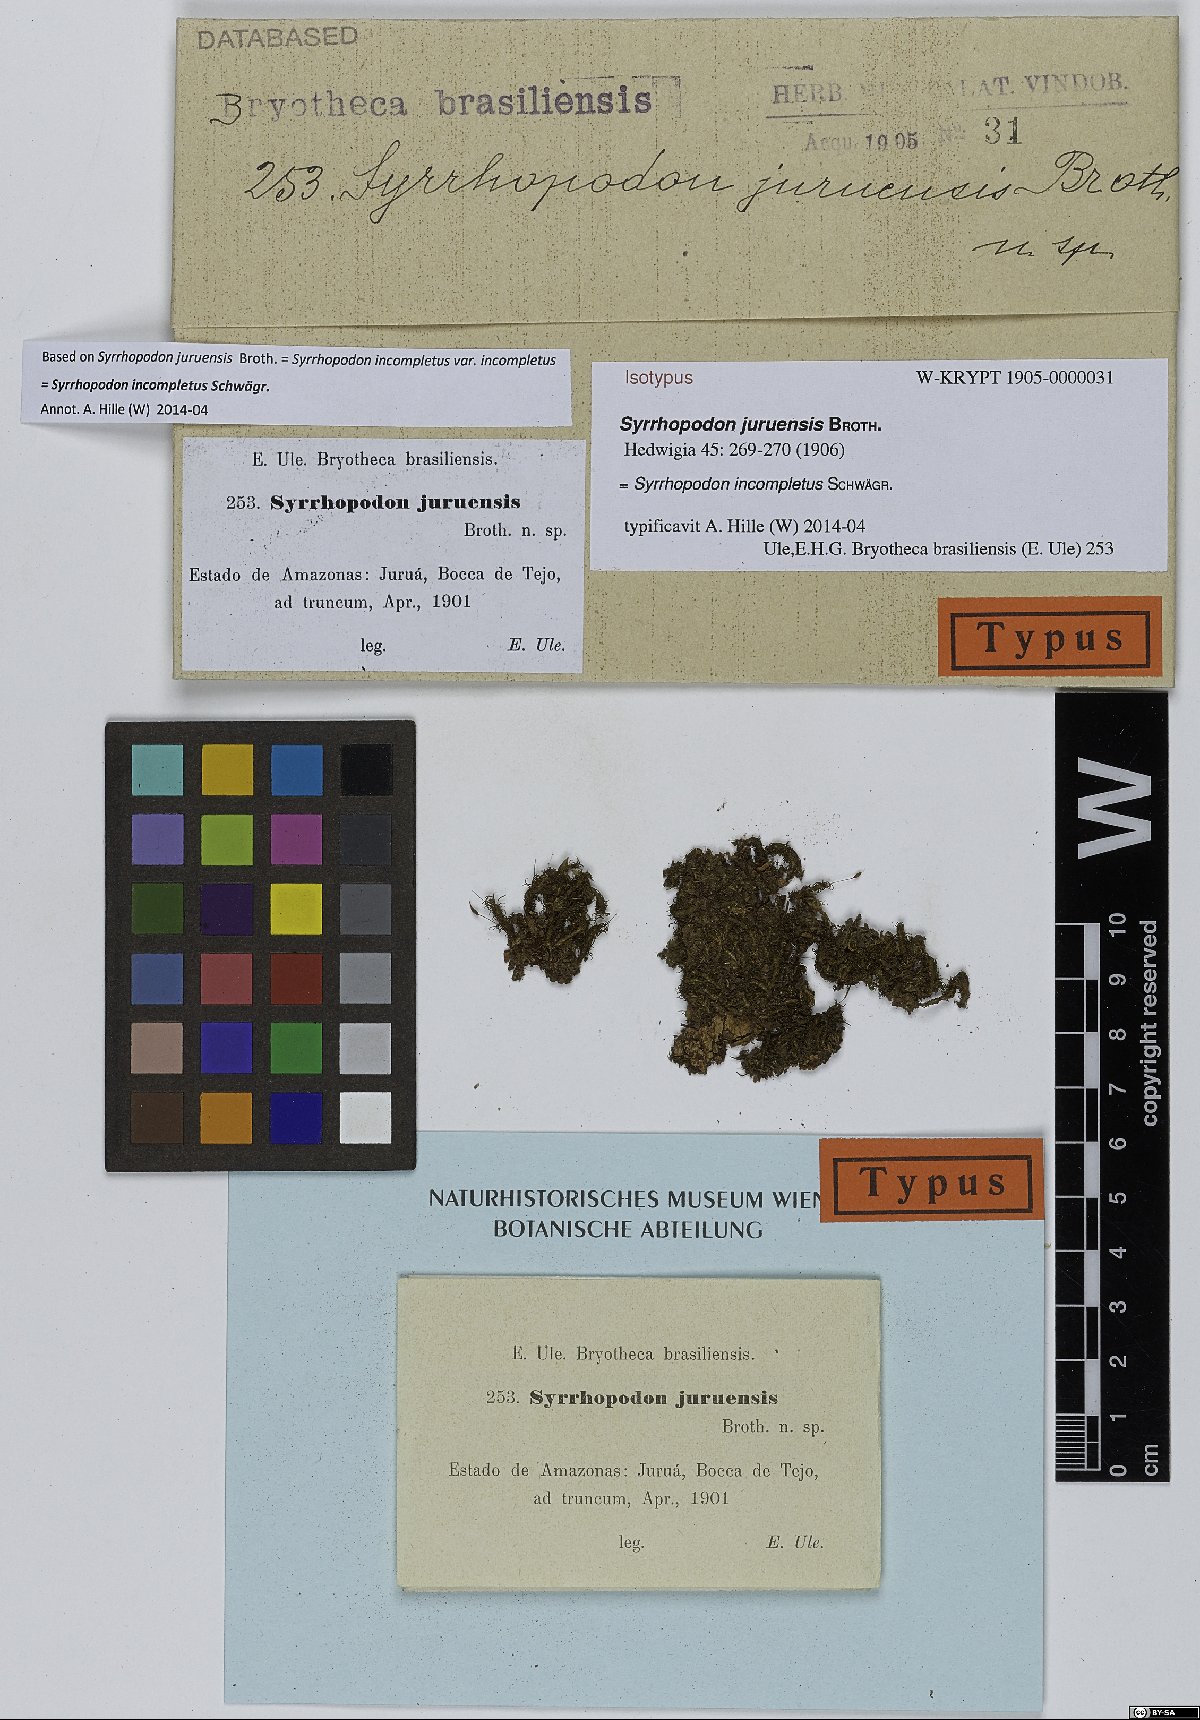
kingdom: Plantae
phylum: Bryophyta
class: Bryopsida
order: Dicranales
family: Calymperaceae
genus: Syrrhopodon
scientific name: Syrrhopodon incompletus
